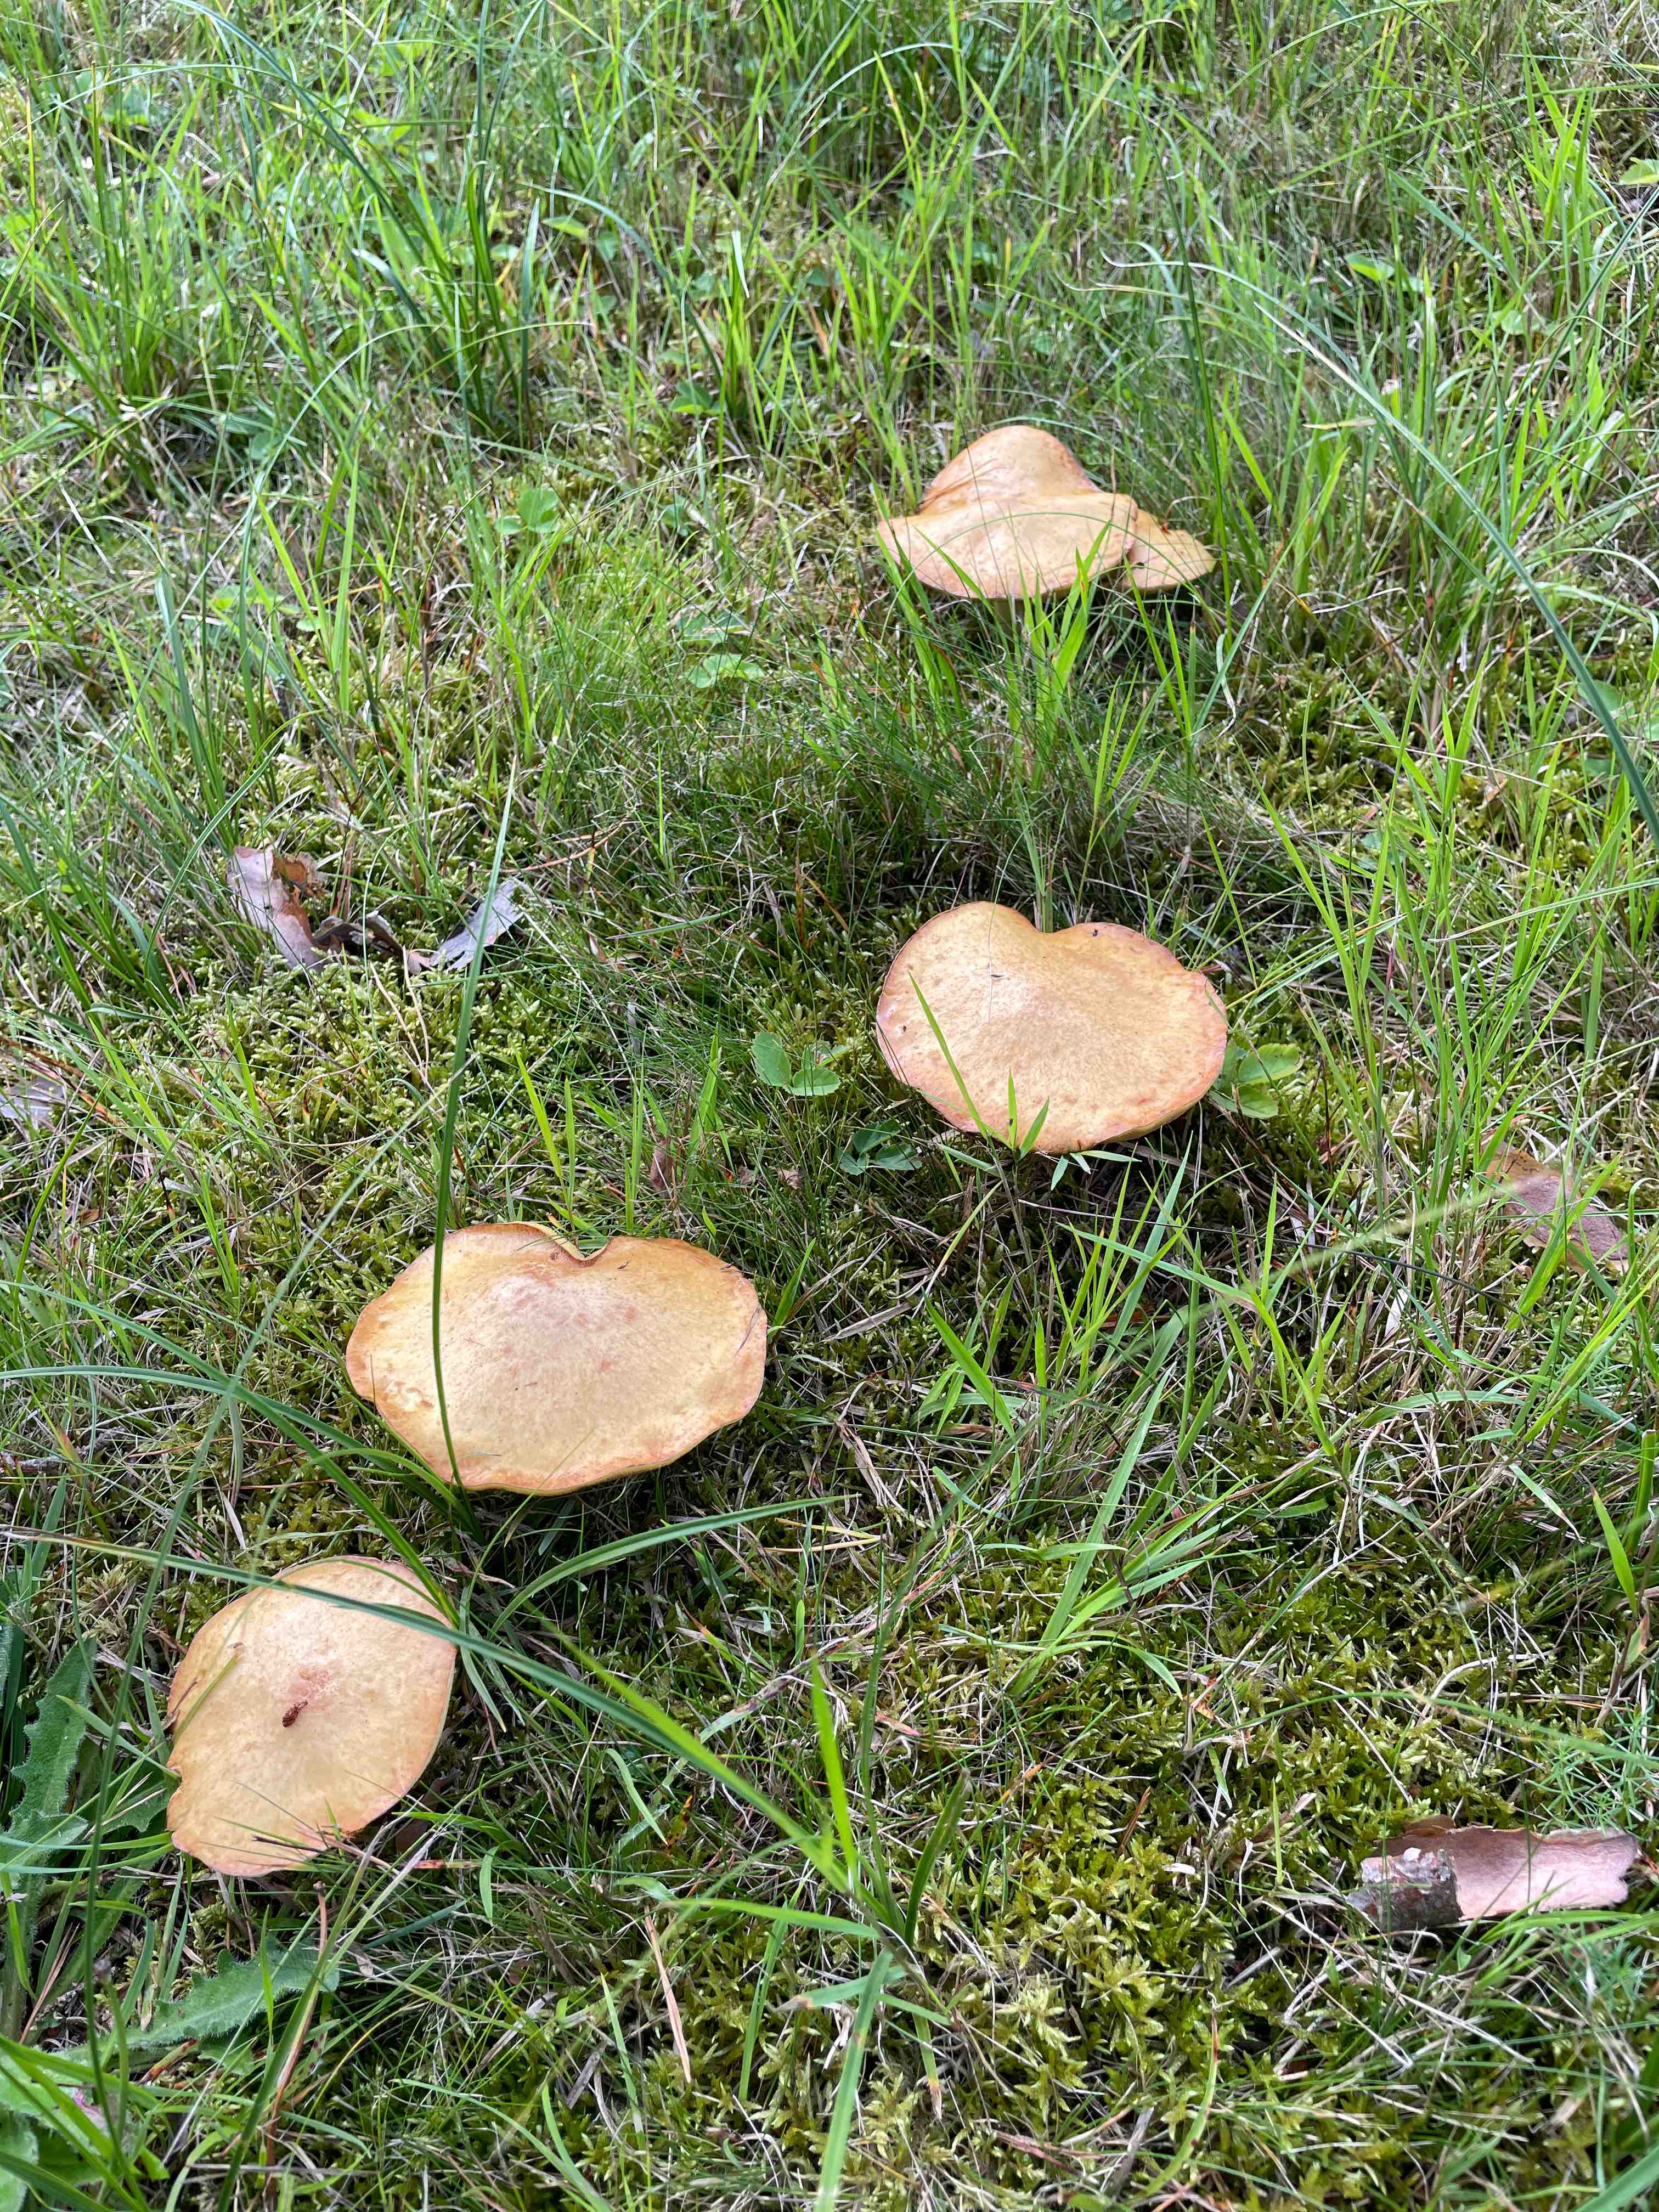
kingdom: Fungi
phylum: Basidiomycota
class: Agaricomycetes
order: Boletales
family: Suillaceae
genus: Suillus
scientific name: Suillus granulatus
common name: kornet slimrørhat
